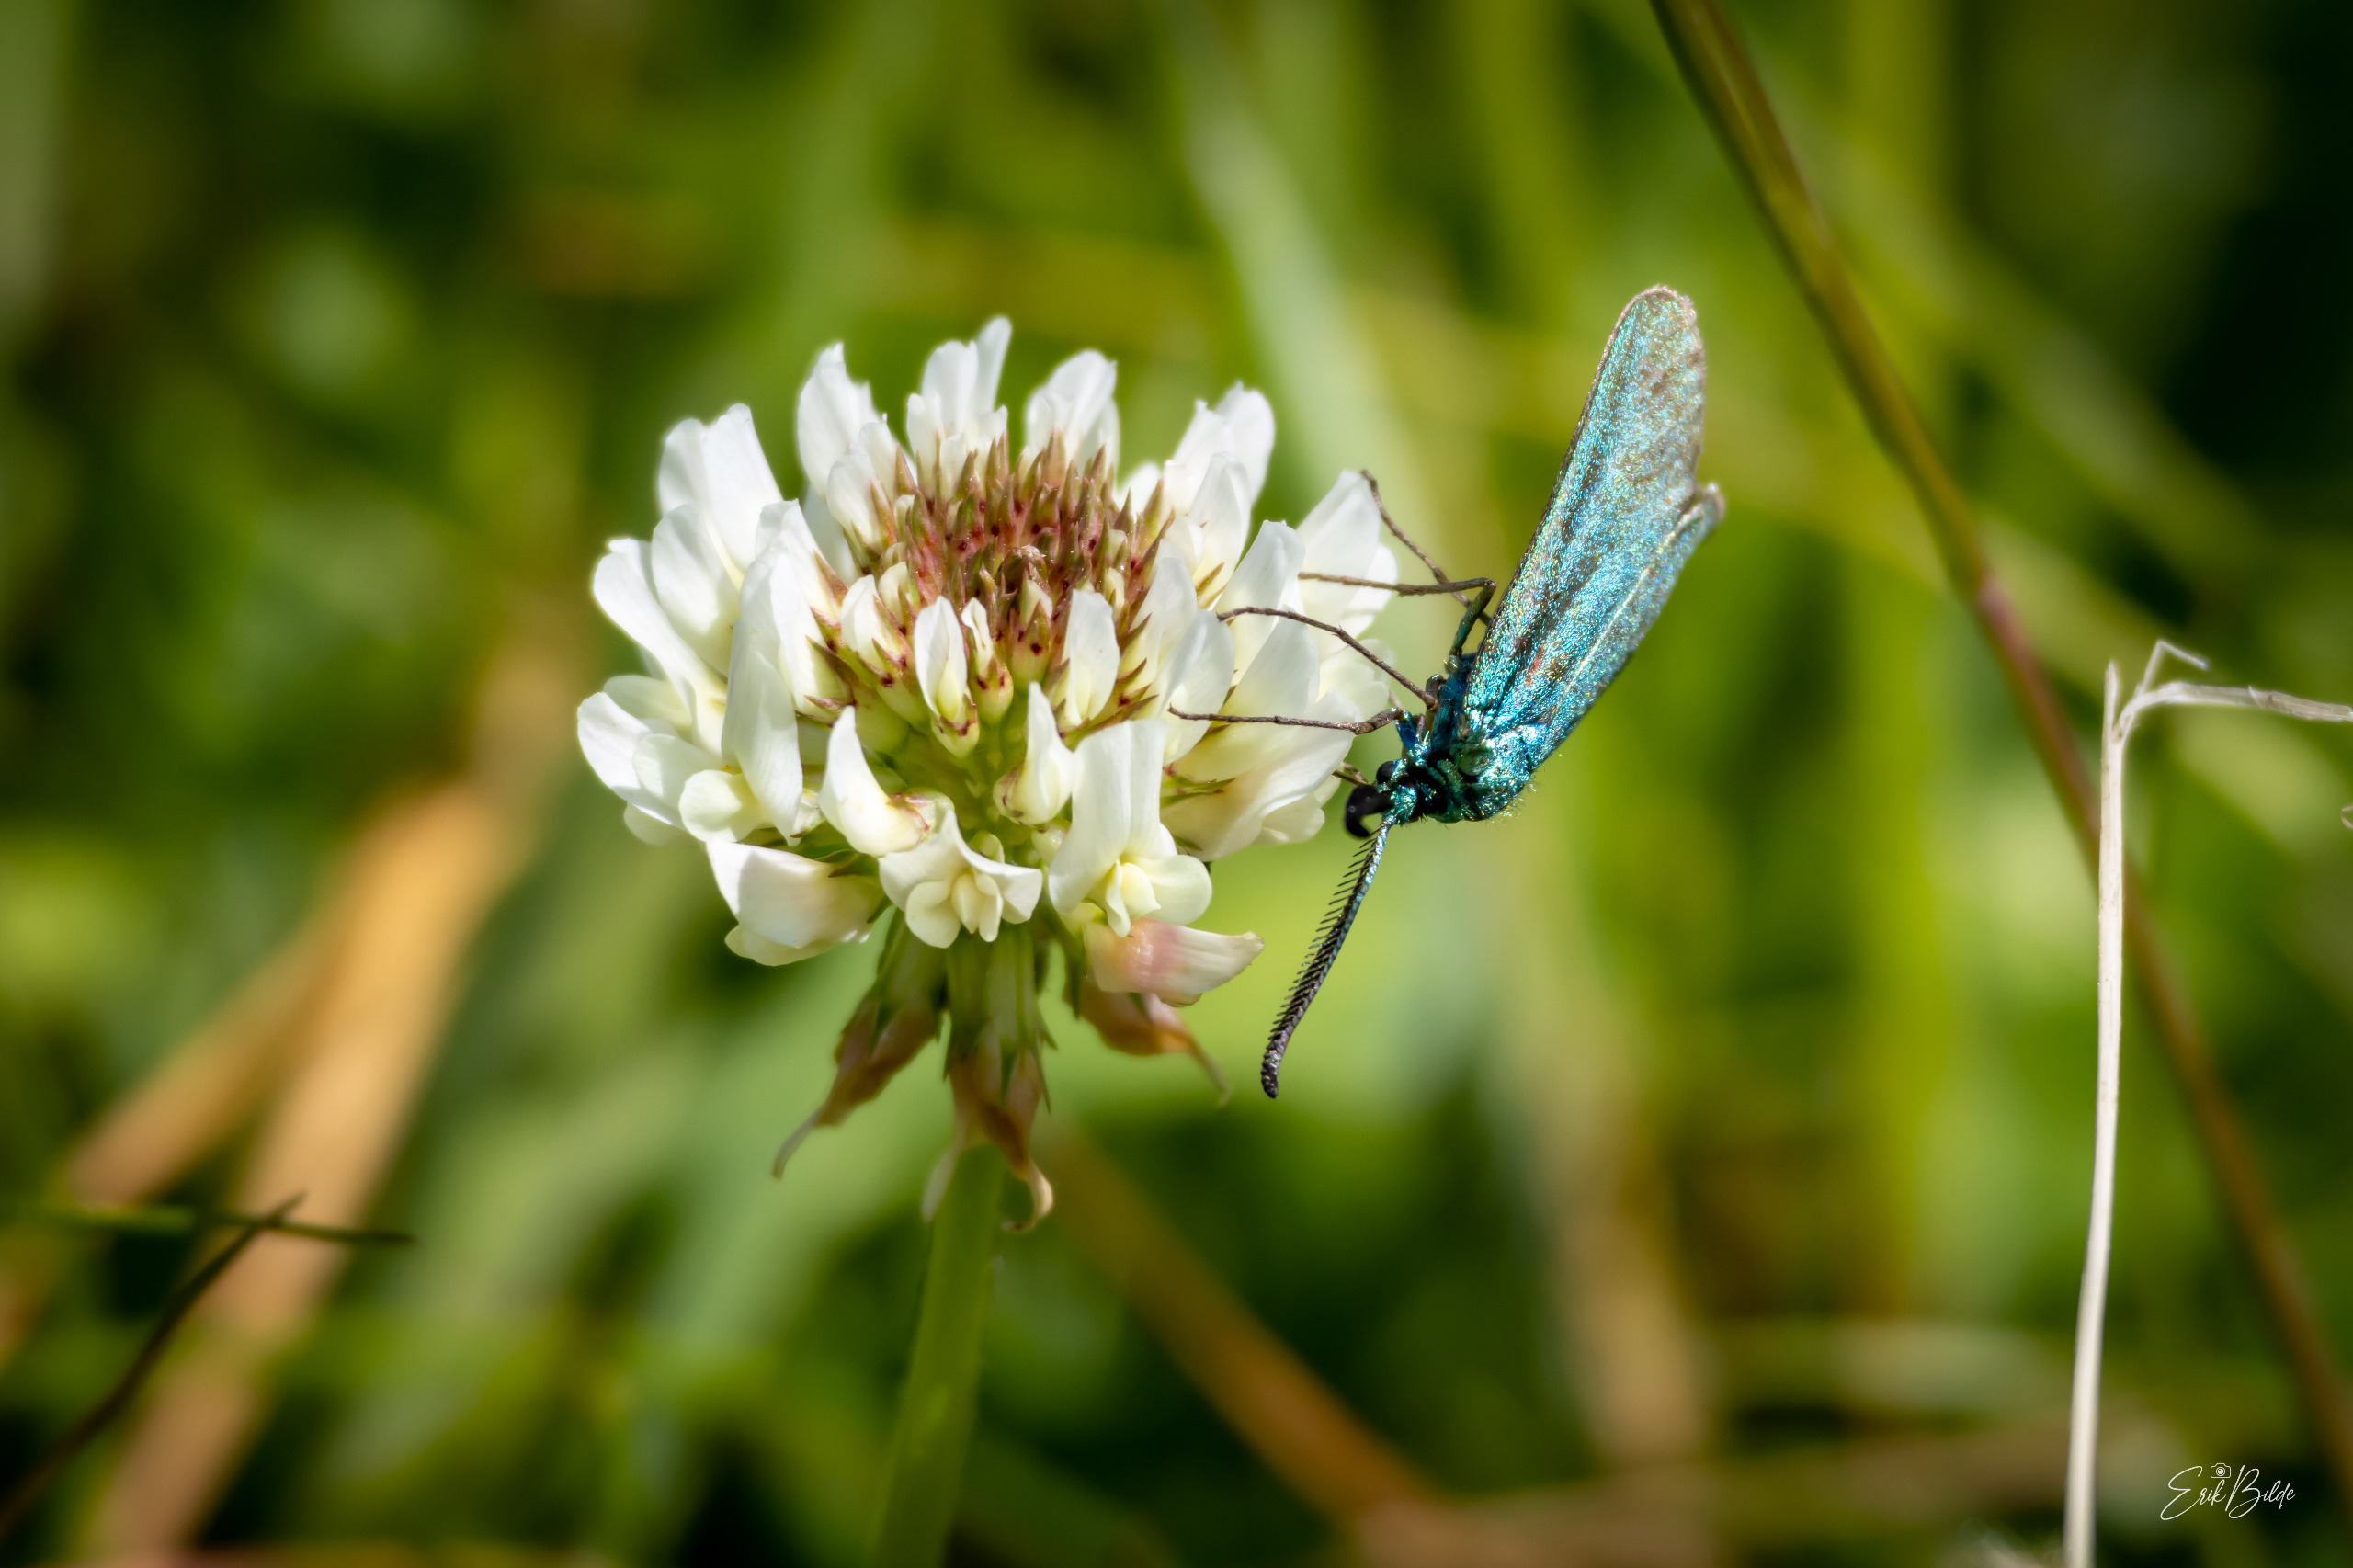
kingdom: Animalia
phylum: Arthropoda
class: Insecta
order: Lepidoptera
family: Zygaenidae
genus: Adscita
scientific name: Adscita statices
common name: Metalvinge
